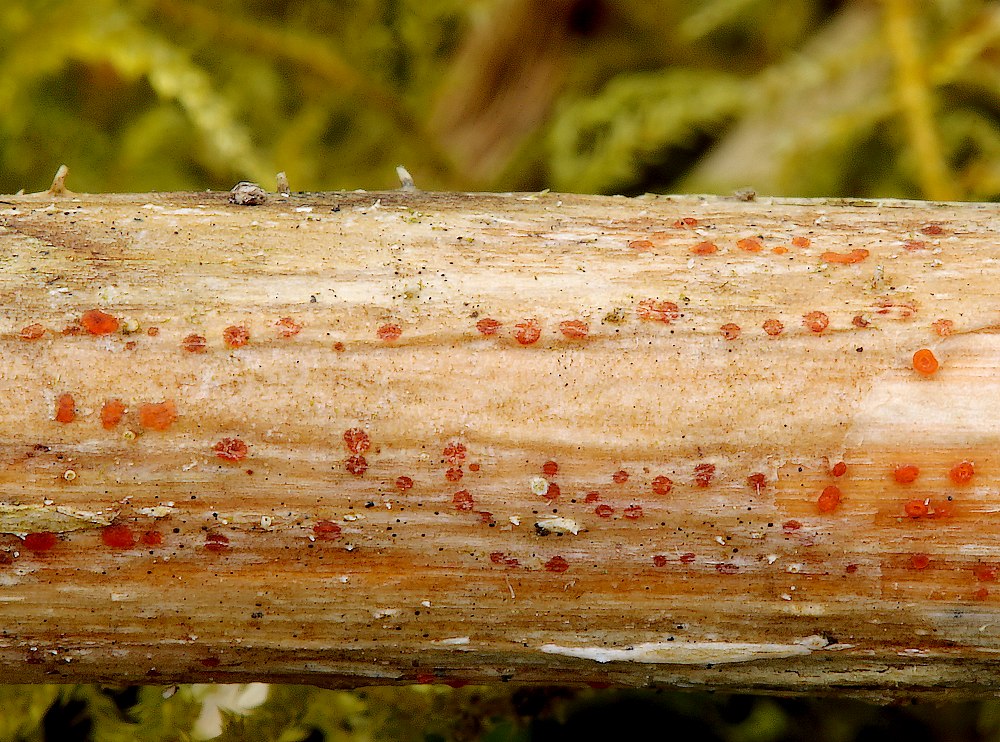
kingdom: Fungi
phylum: Ascomycota
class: Leotiomycetes
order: Helotiales
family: Calloriaceae
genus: Calloria
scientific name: Calloria urticae
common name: nælde-orangeskive
